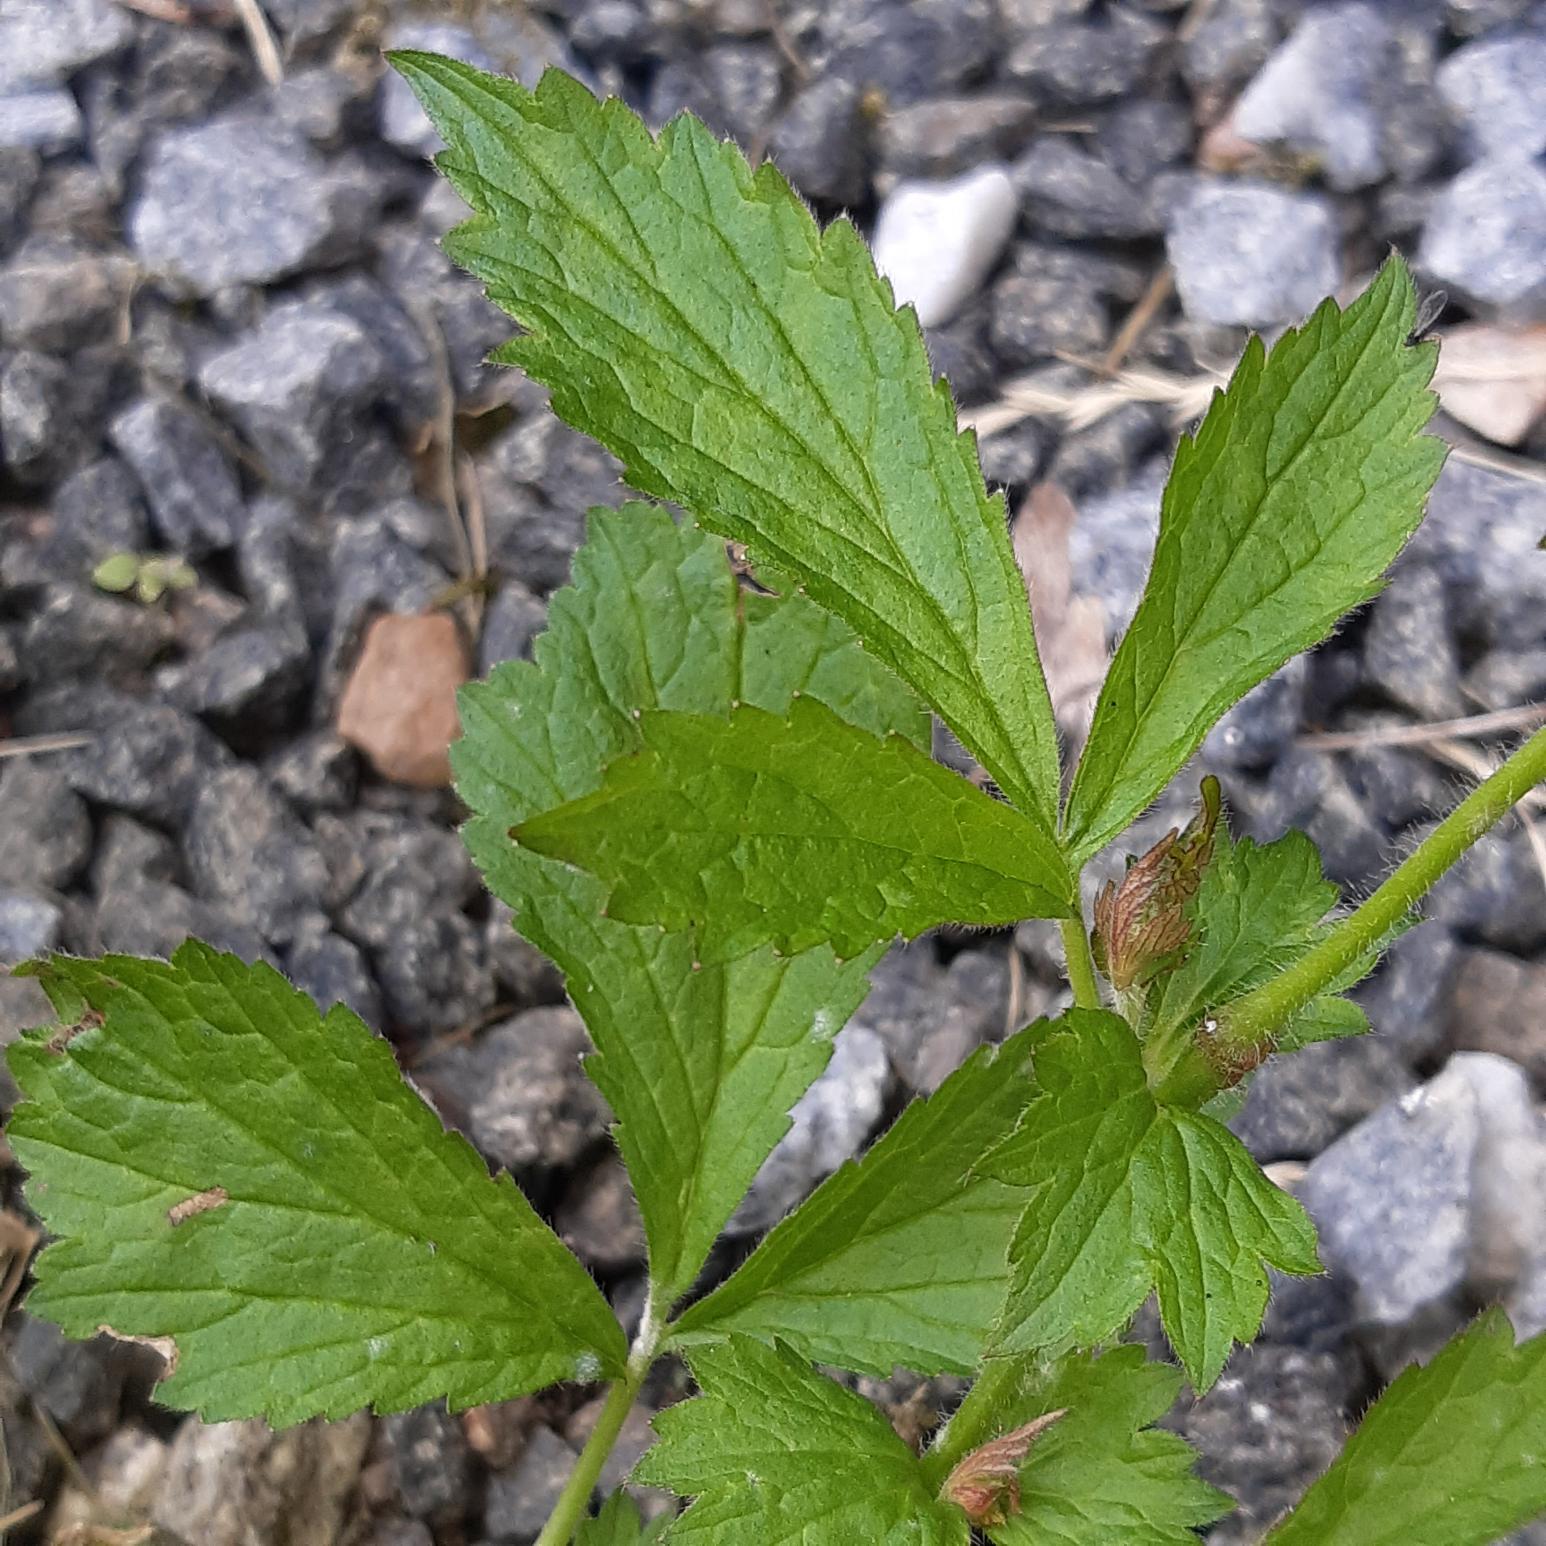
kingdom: Plantae
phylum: Tracheophyta
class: Magnoliopsida
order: Rosales
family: Rosaceae
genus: Geum
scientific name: Geum urbanum
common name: Feber-nellikerod
